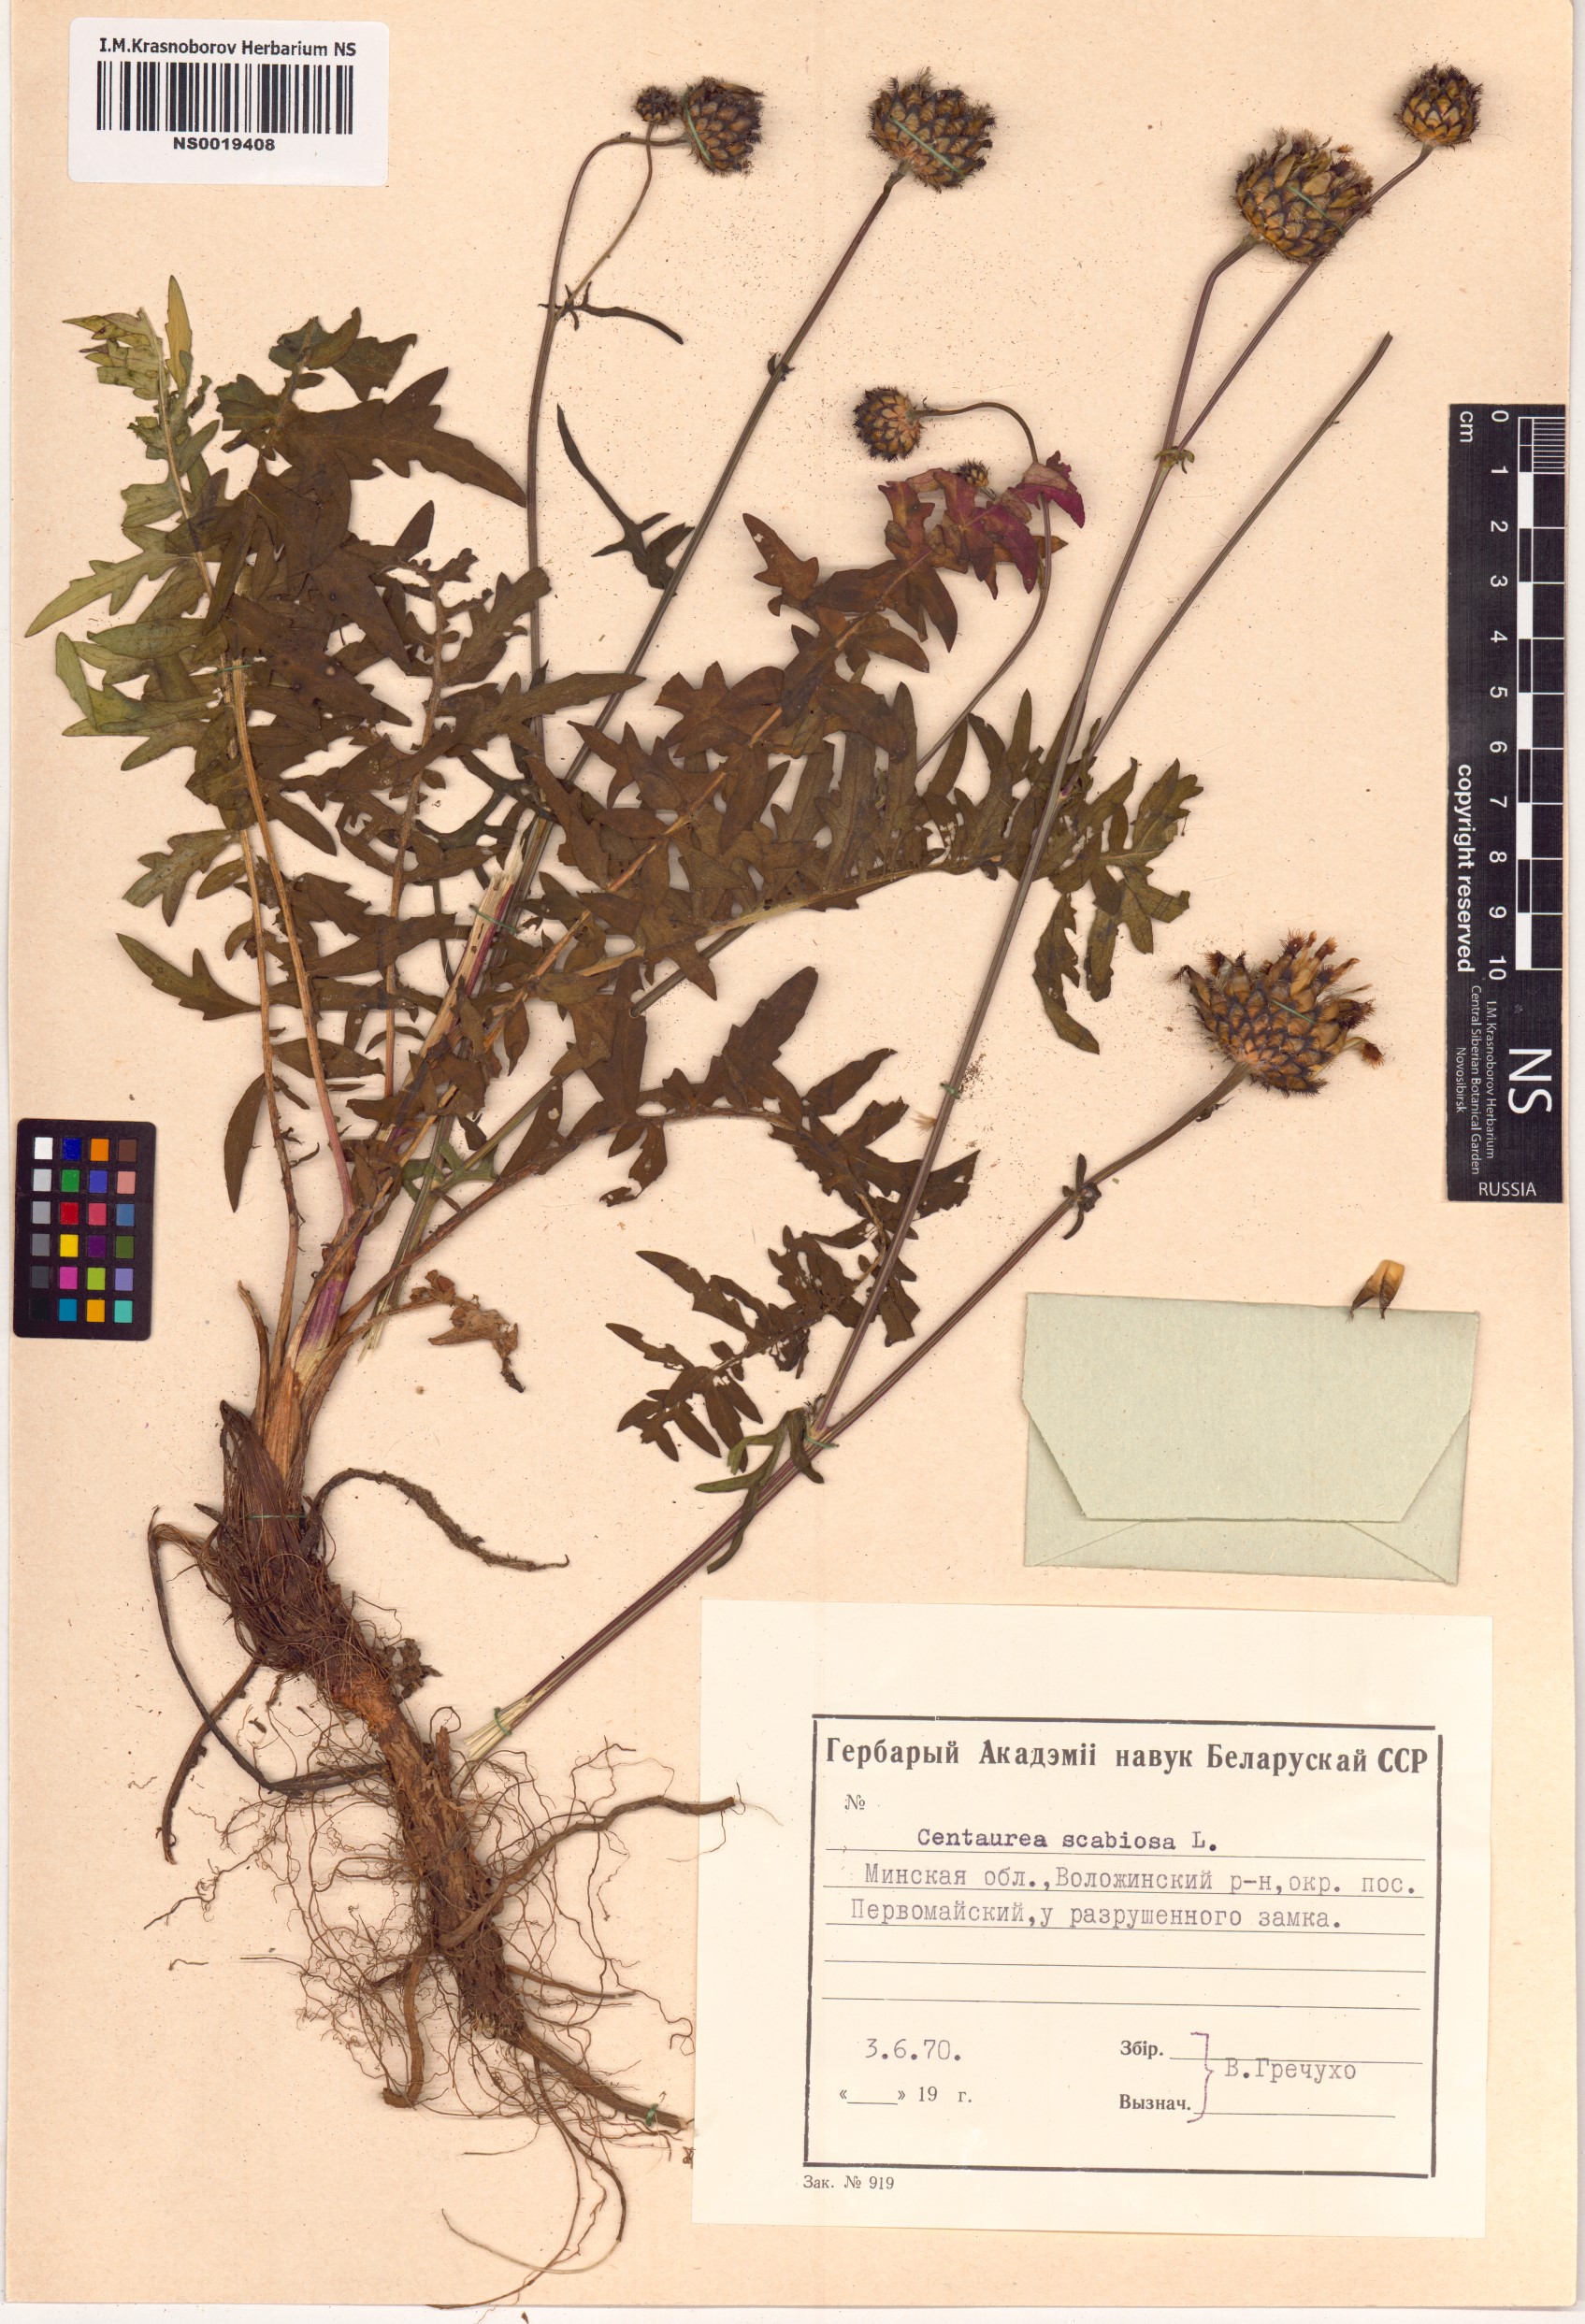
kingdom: Plantae
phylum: Tracheophyta
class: Magnoliopsida
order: Asterales
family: Asteraceae
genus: Centaurea
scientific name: Centaurea scabiosa
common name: Greater knapweed
